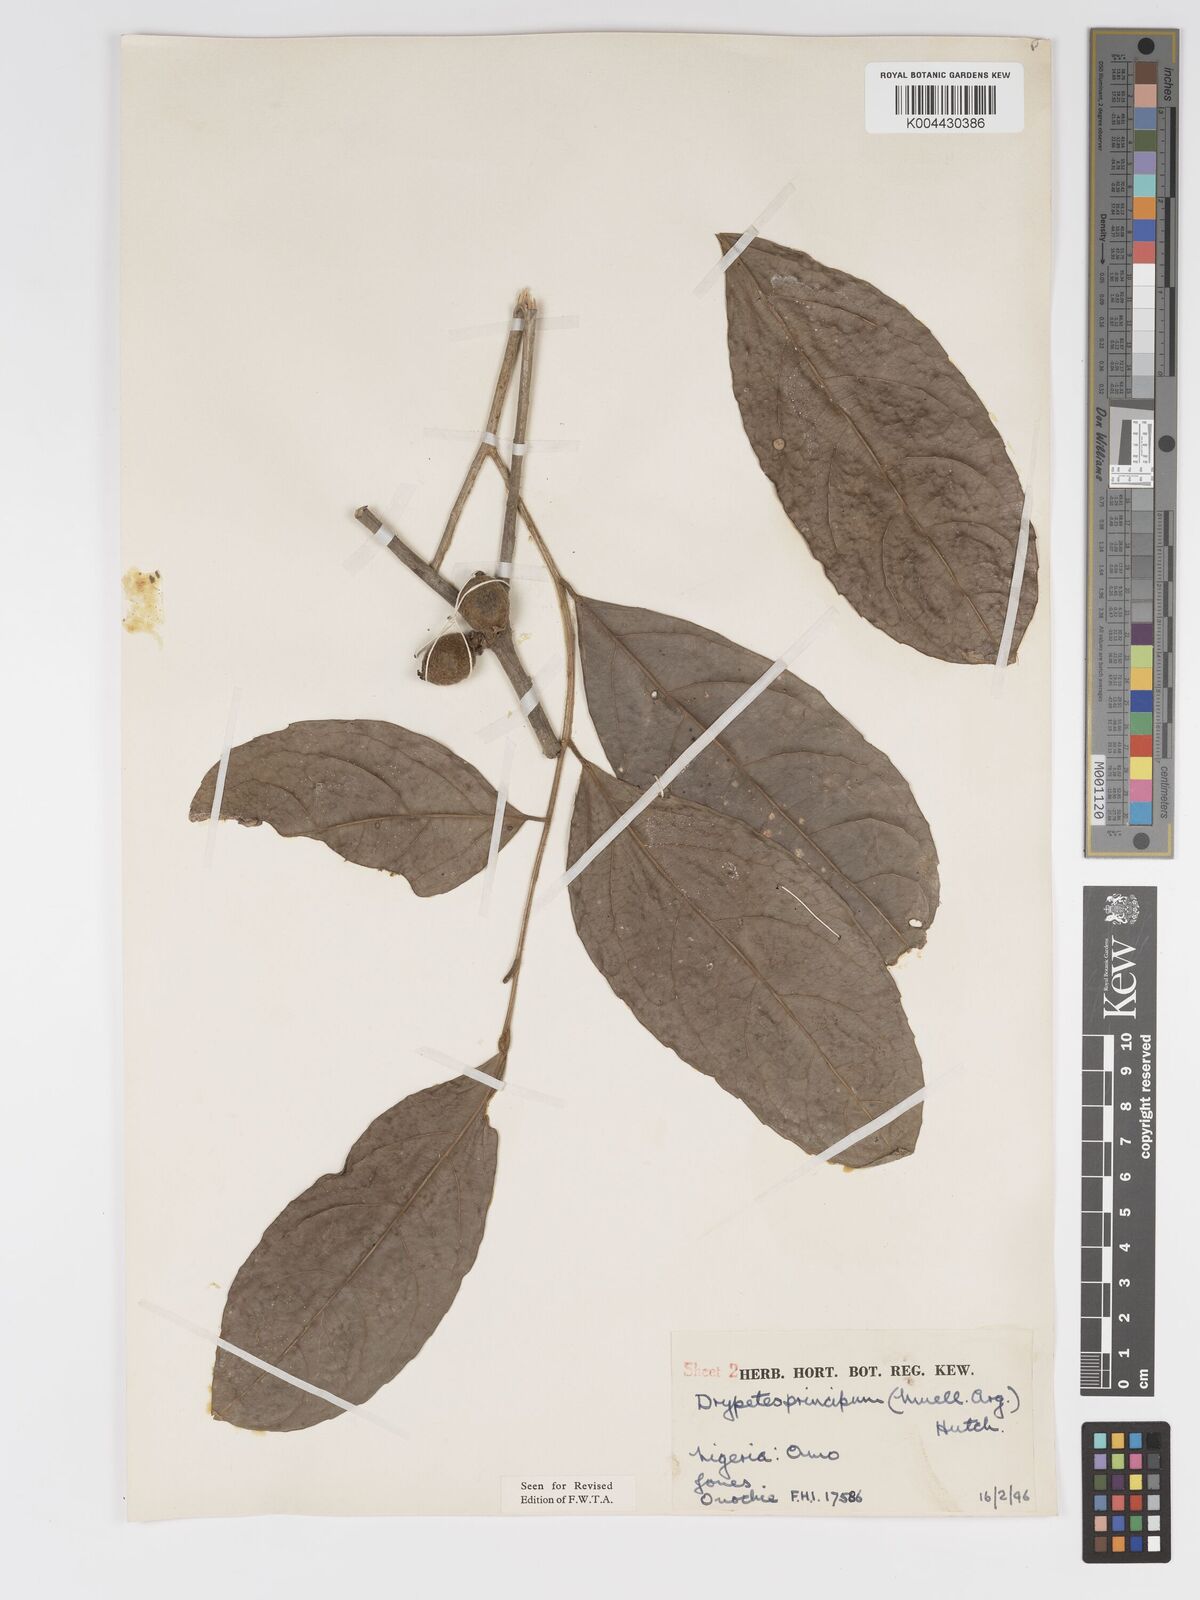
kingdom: Plantae
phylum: Tracheophyta
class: Magnoliopsida
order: Malpighiales
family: Putranjivaceae
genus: Drypetes
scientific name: Drypetes principum
